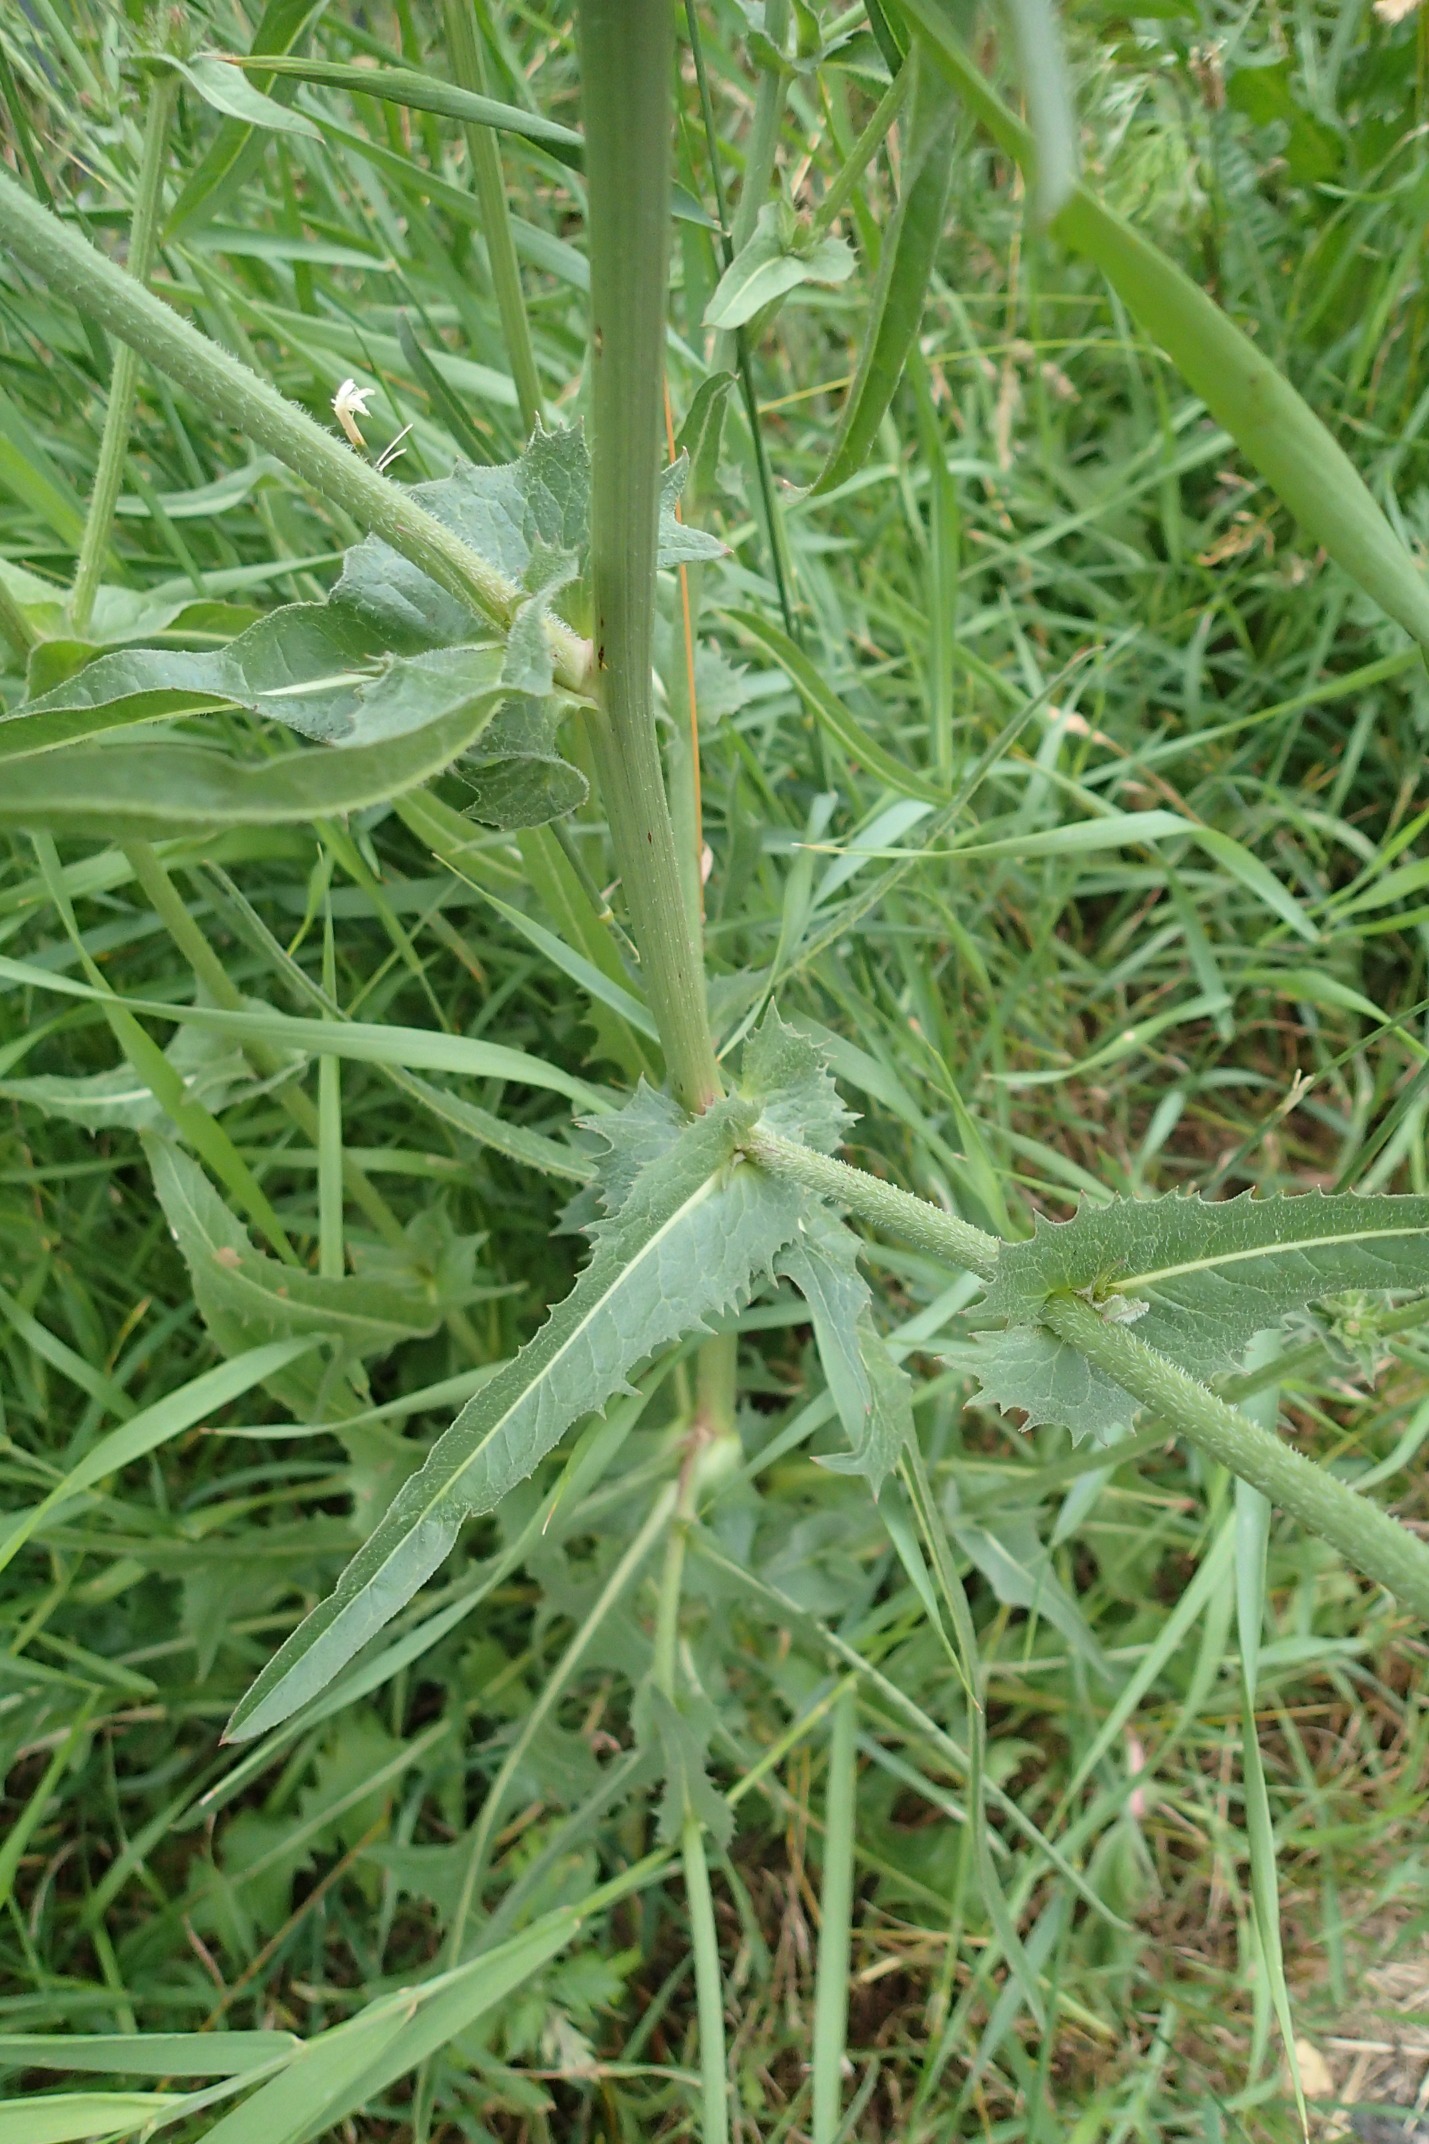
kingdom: Plantae
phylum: Tracheophyta
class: Magnoliopsida
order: Asterales
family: Asteraceae
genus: Cichorium
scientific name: Cichorium intybus
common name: Cikorie
